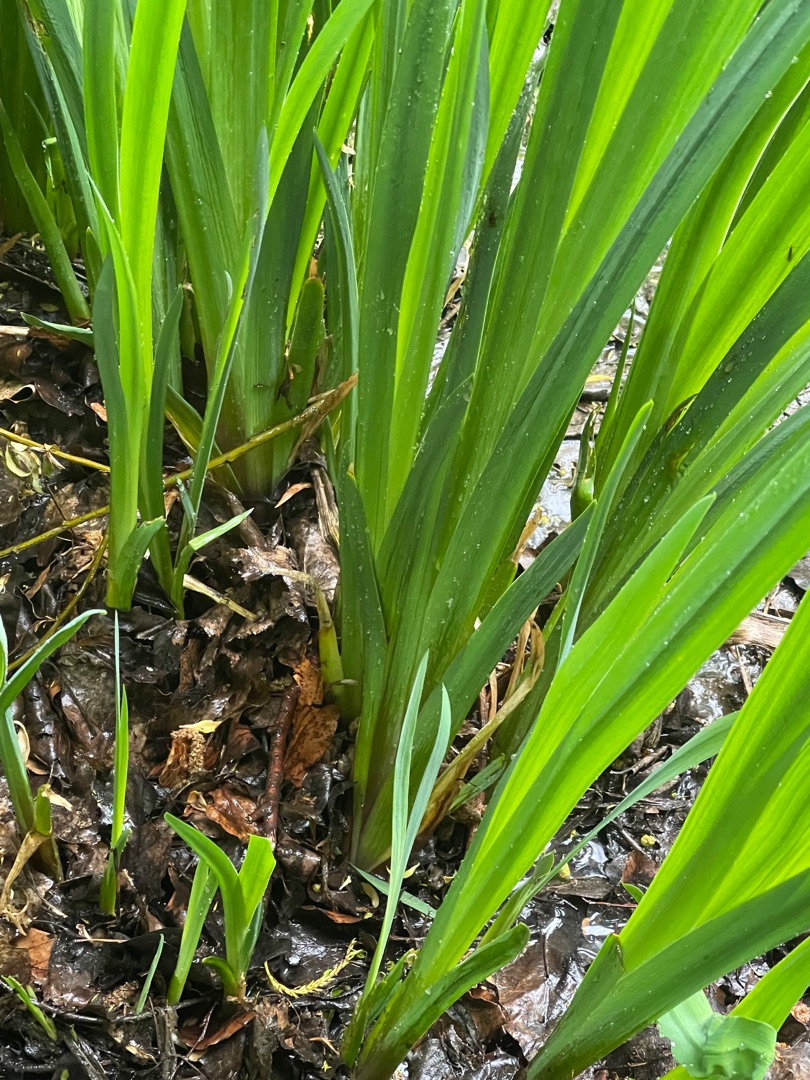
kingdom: Plantae
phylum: Tracheophyta
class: Liliopsida
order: Asparagales
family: Iridaceae
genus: Iris
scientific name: Iris pseudacorus
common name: Gul iris
